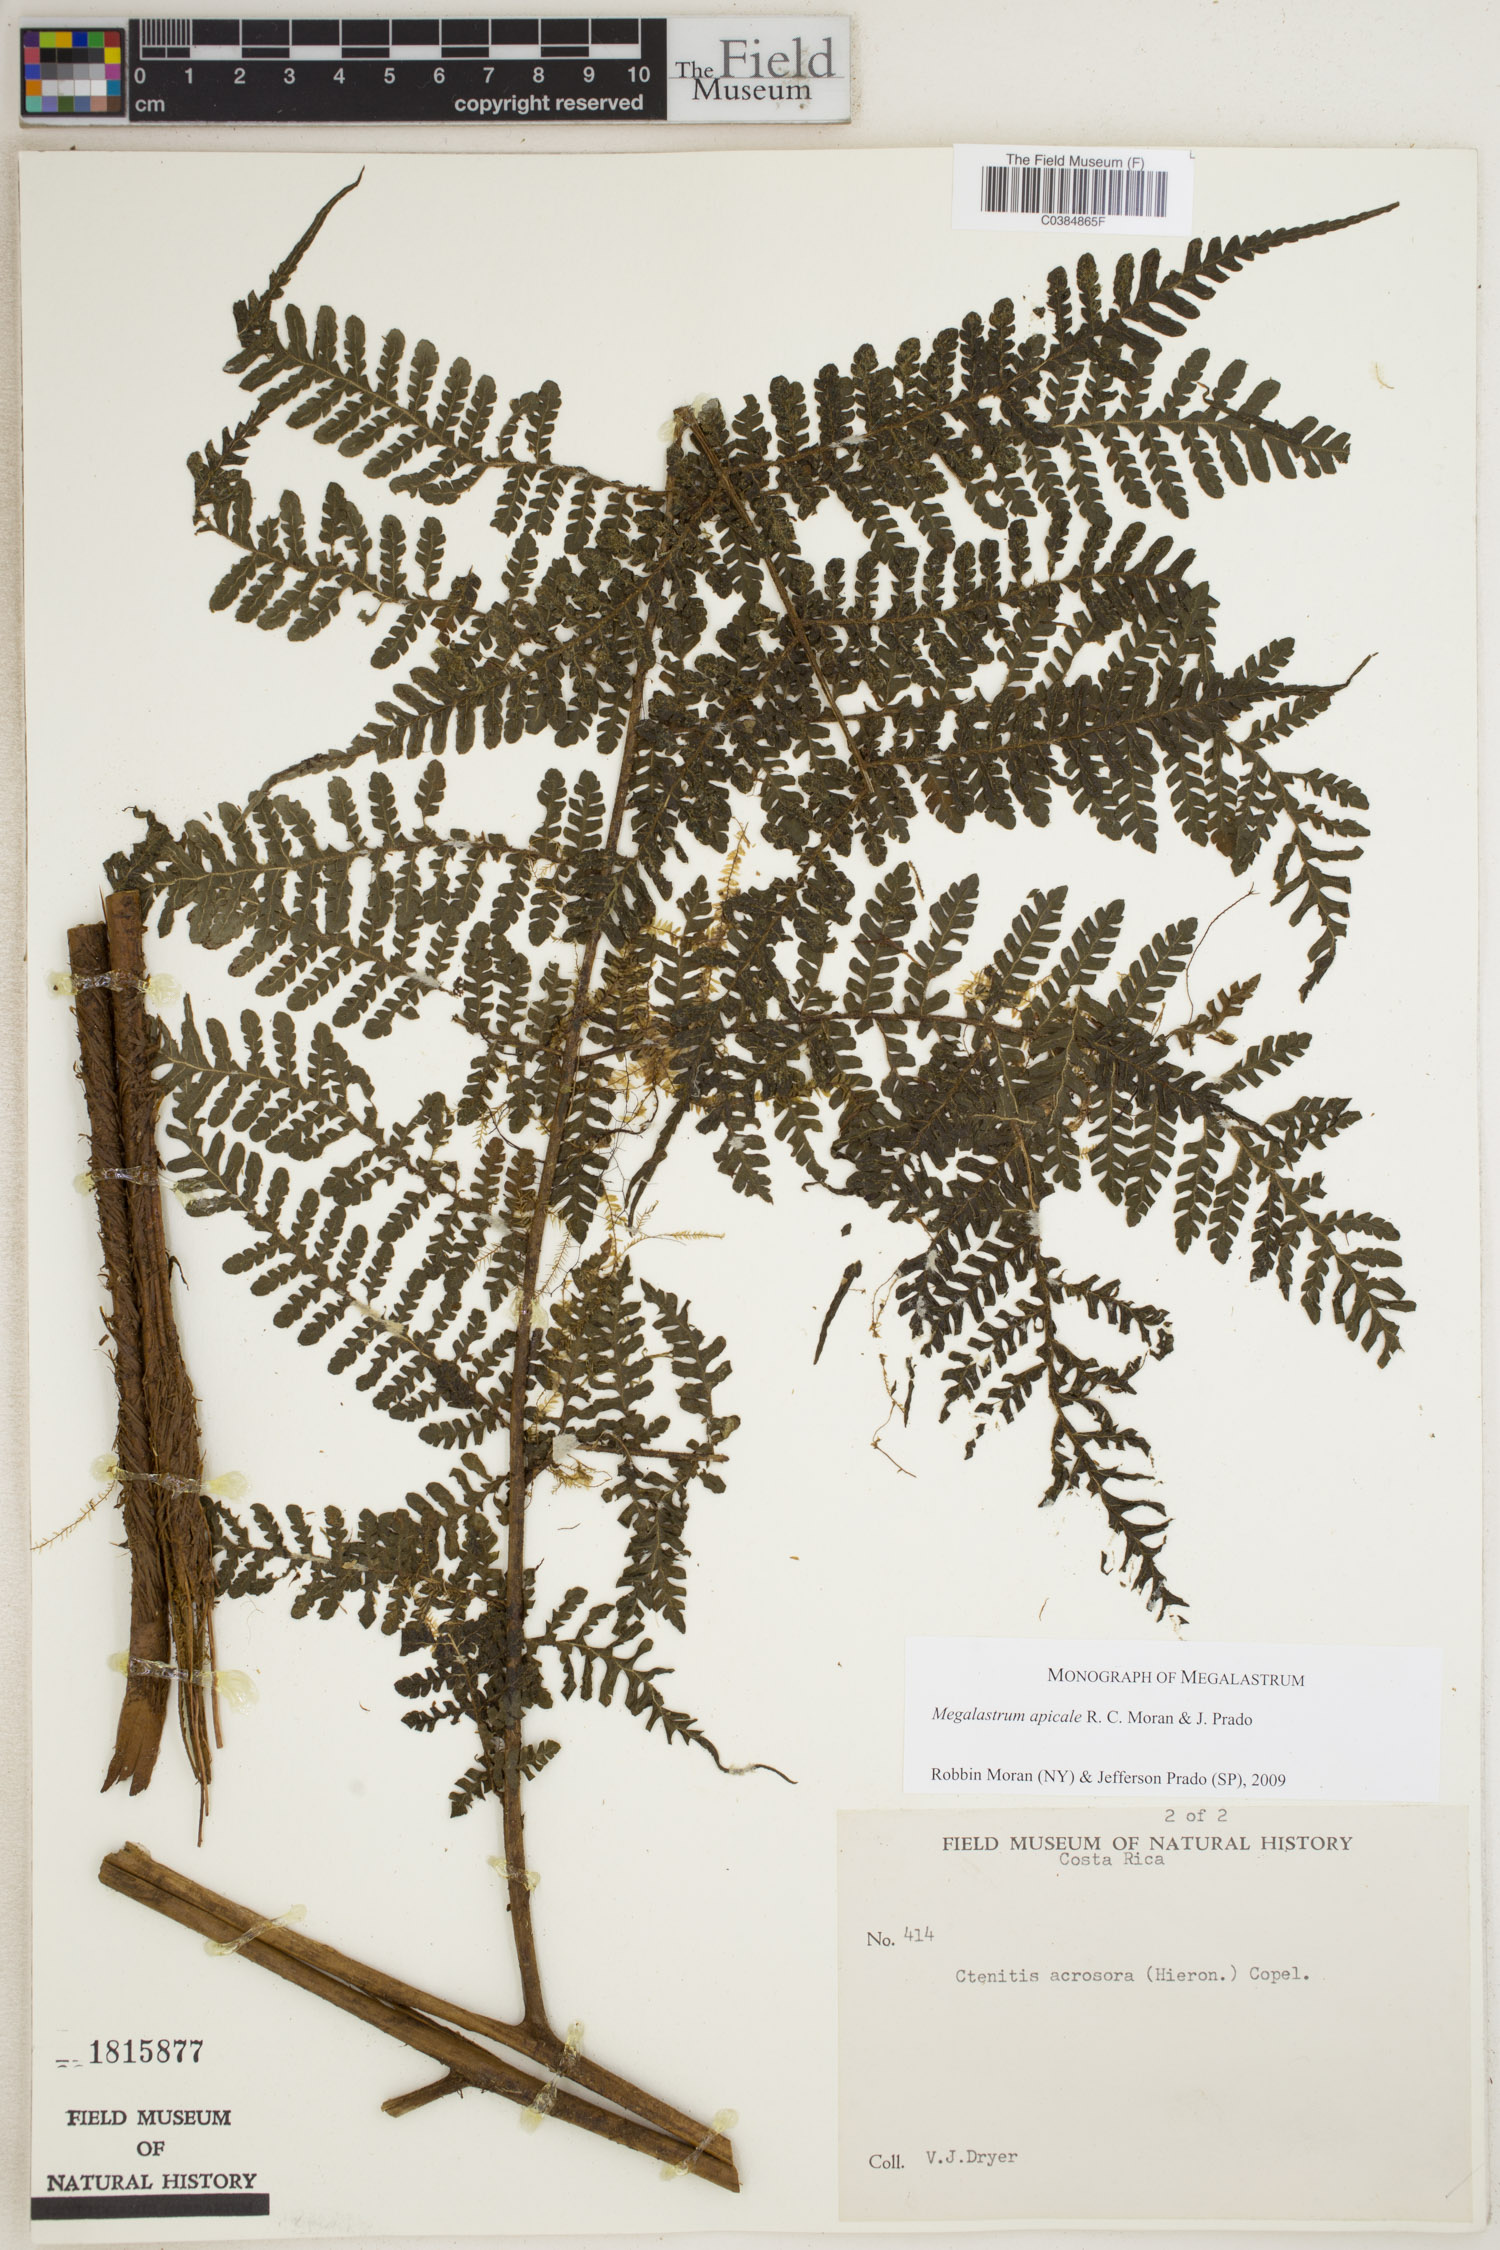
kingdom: Plantae
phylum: Tracheophyta
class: Polypodiopsida
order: Polypodiales
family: Dryopteridaceae
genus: Megalastrum
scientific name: Megalastrum apicale
